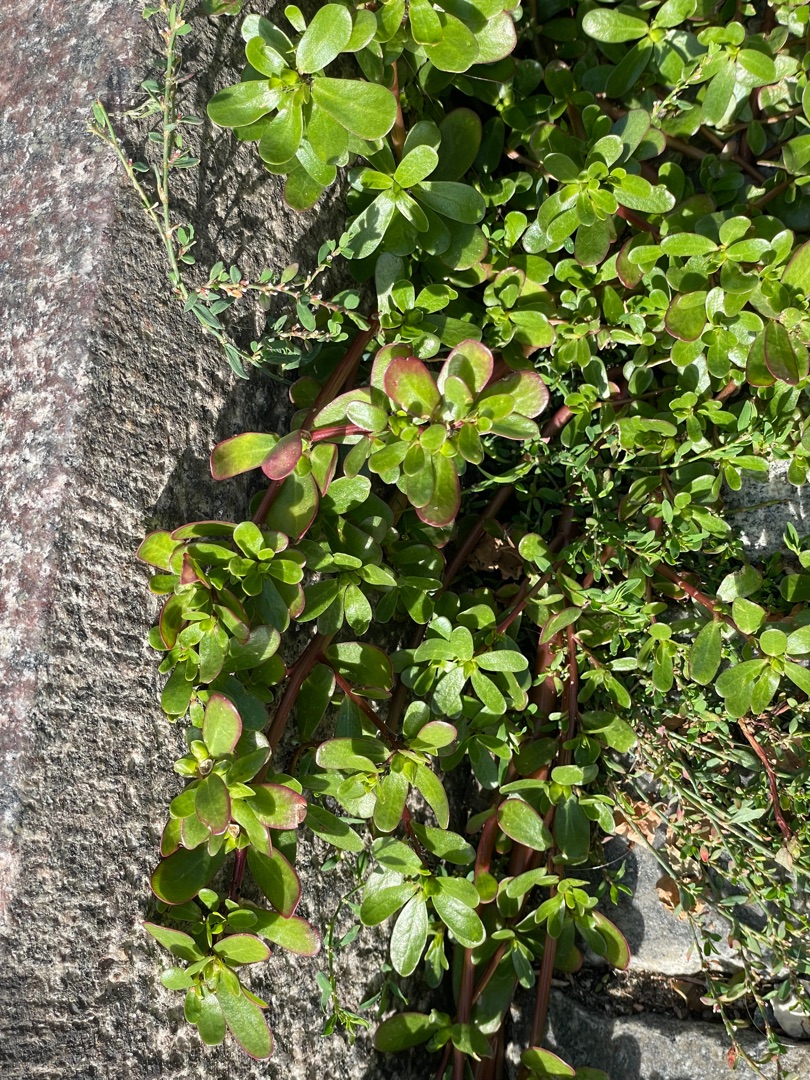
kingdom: Plantae
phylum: Tracheophyta
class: Magnoliopsida
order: Caryophyllales
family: Portulacaceae
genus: Portulaca
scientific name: Portulaca oleracea
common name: Portulak
